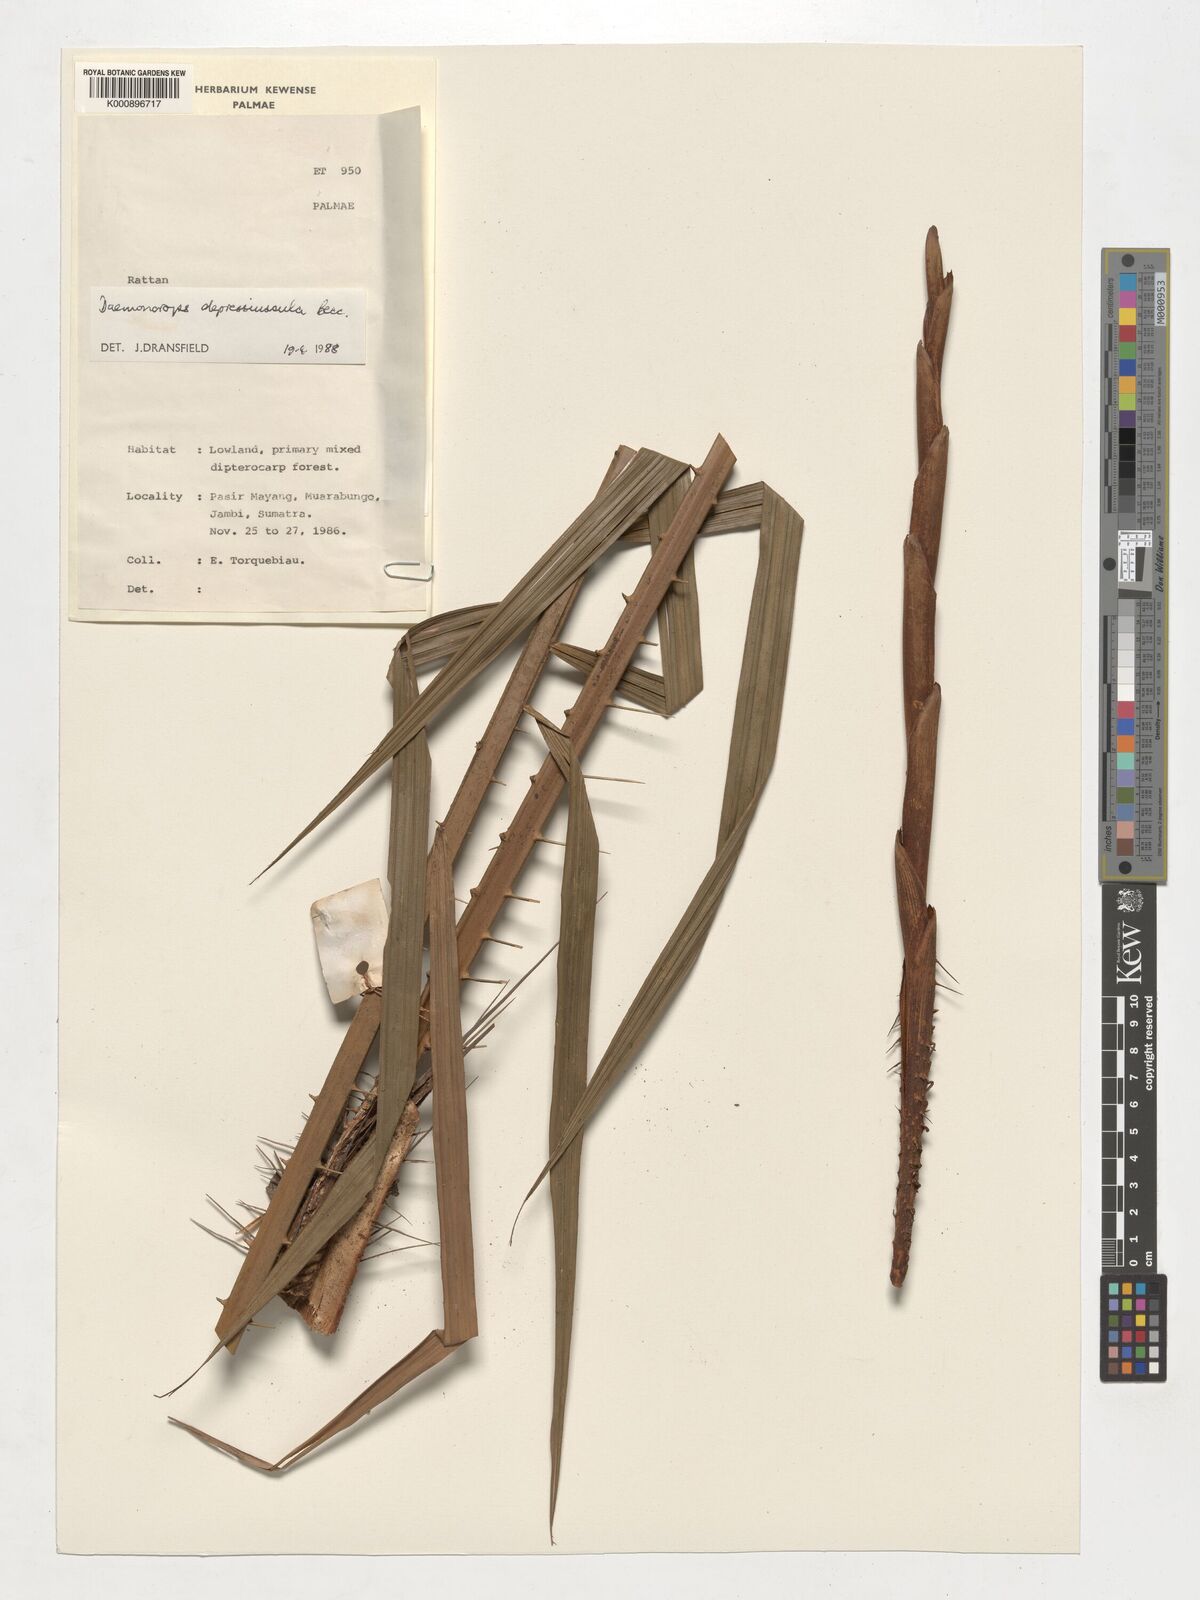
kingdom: Plantae
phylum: Tracheophyta
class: Liliopsida
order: Arecales
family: Arecaceae
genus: Daemonorops
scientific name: Daemonorops
